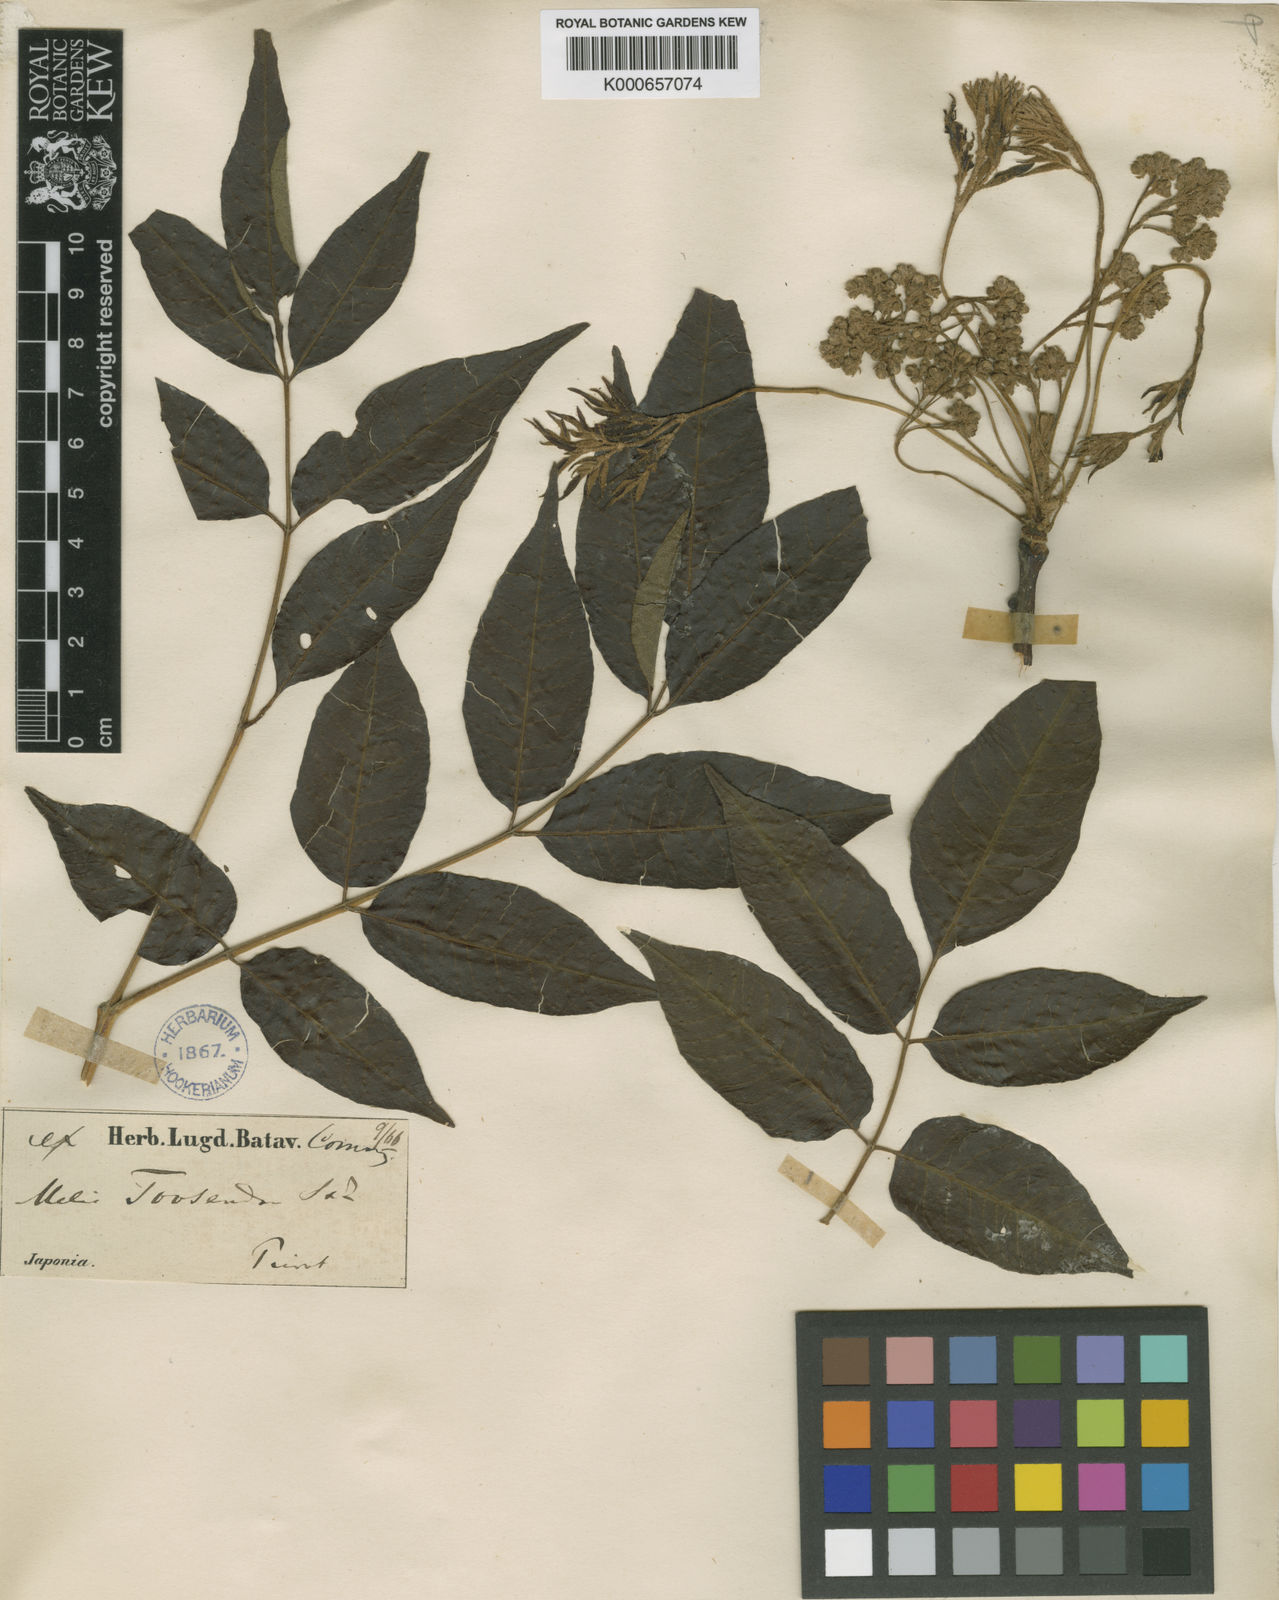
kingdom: Plantae
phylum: Tracheophyta
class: Magnoliopsida
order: Sapindales
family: Meliaceae
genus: Melia
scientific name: Melia azedarach
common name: Chinaberrytree
